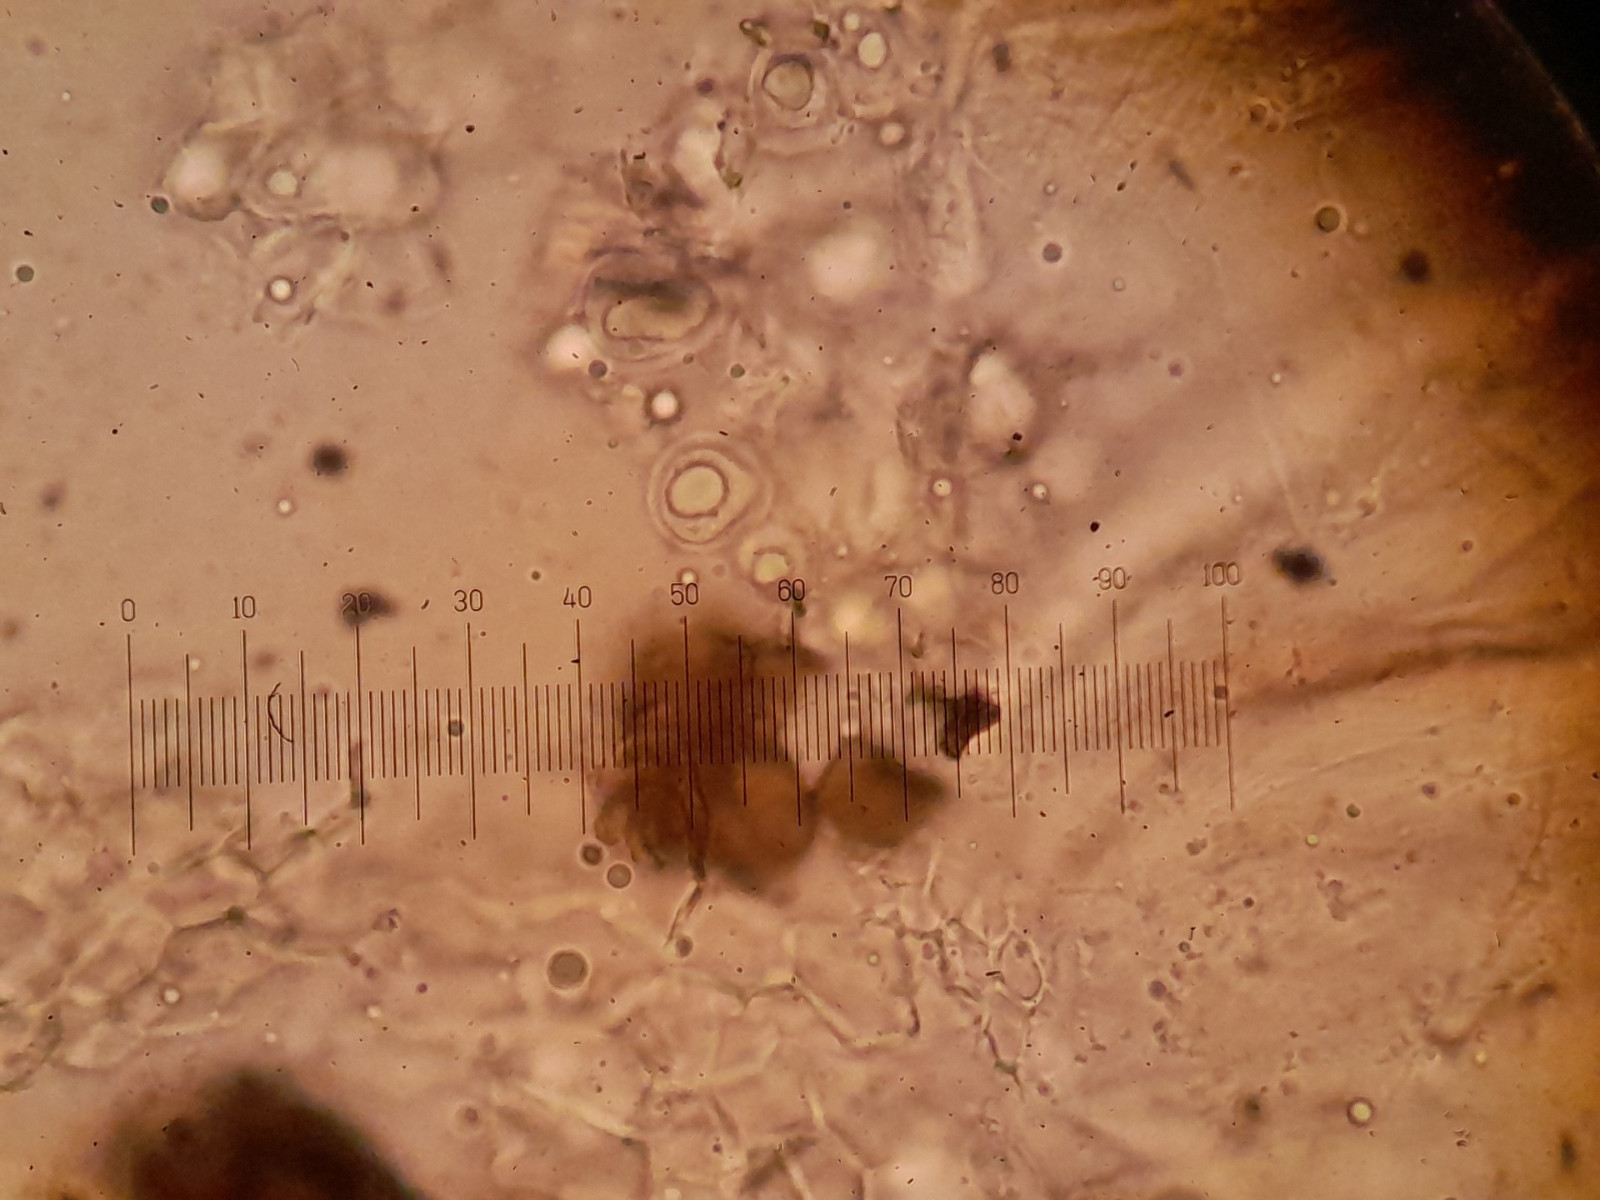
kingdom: Fungi
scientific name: Fungi
